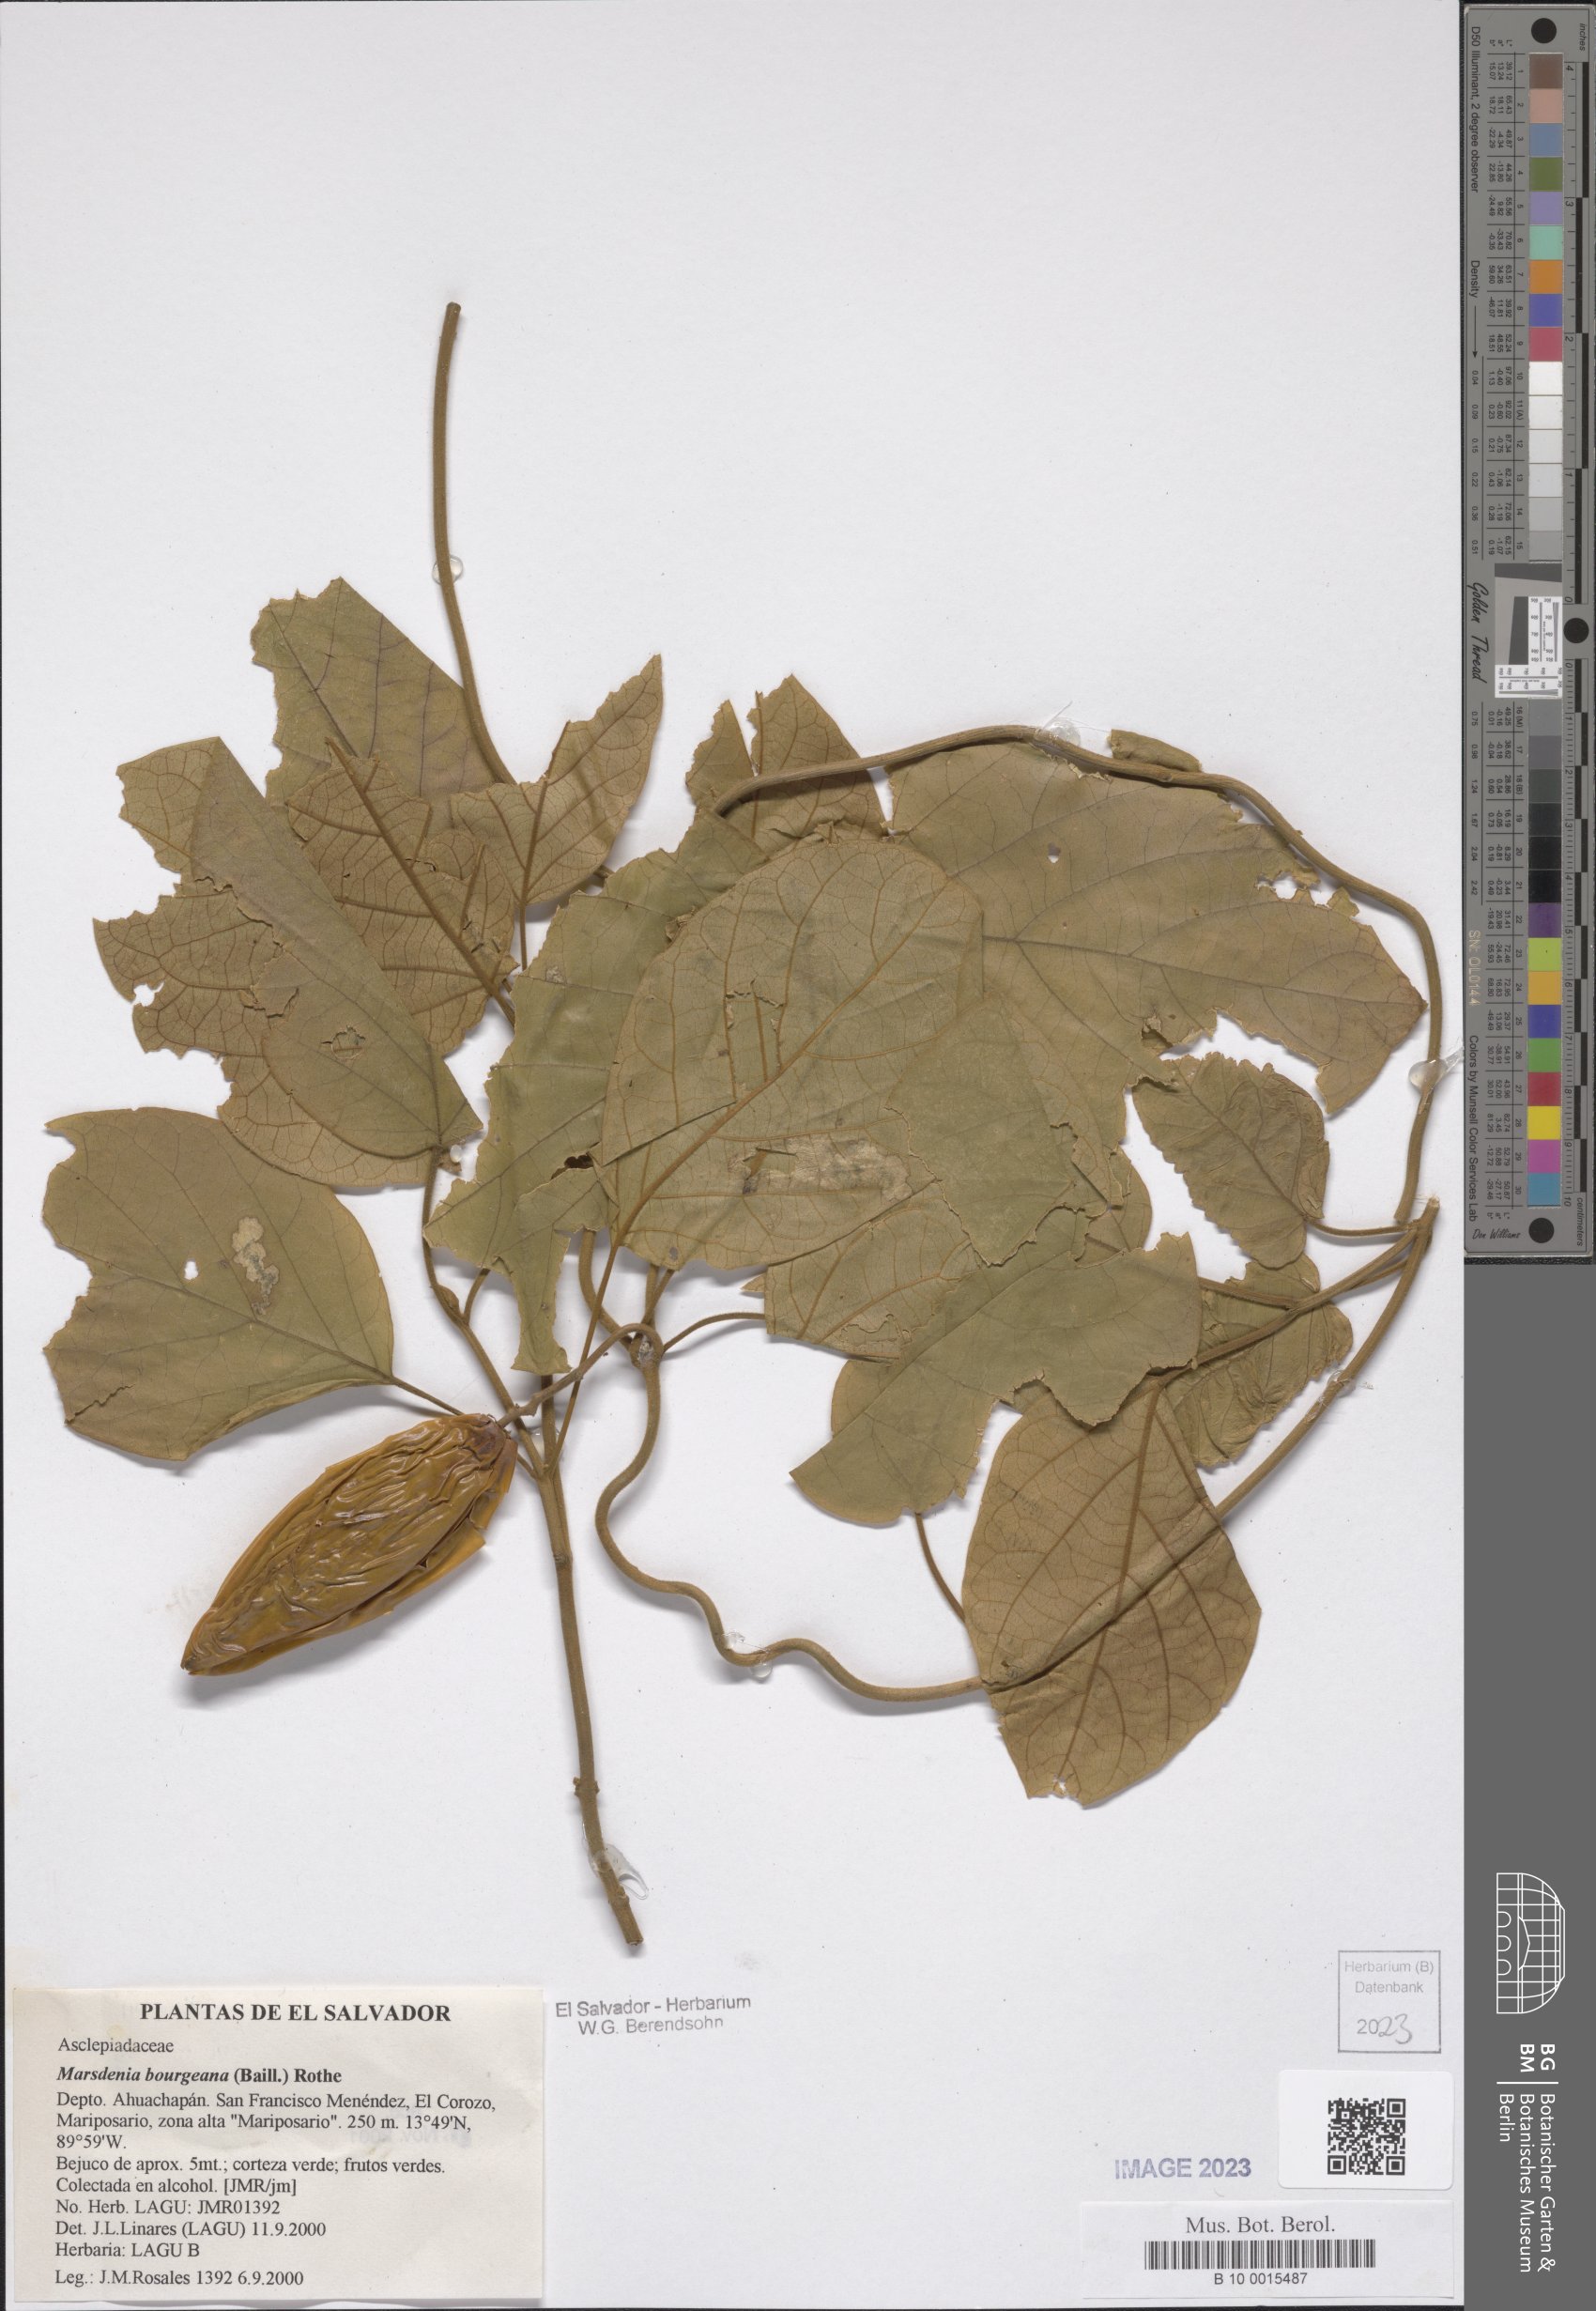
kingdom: Plantae
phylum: Tracheophyta
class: Magnoliopsida
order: Gentianales
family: Apocynaceae
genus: Ruehssia
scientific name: Ruehssia bourgaeana
